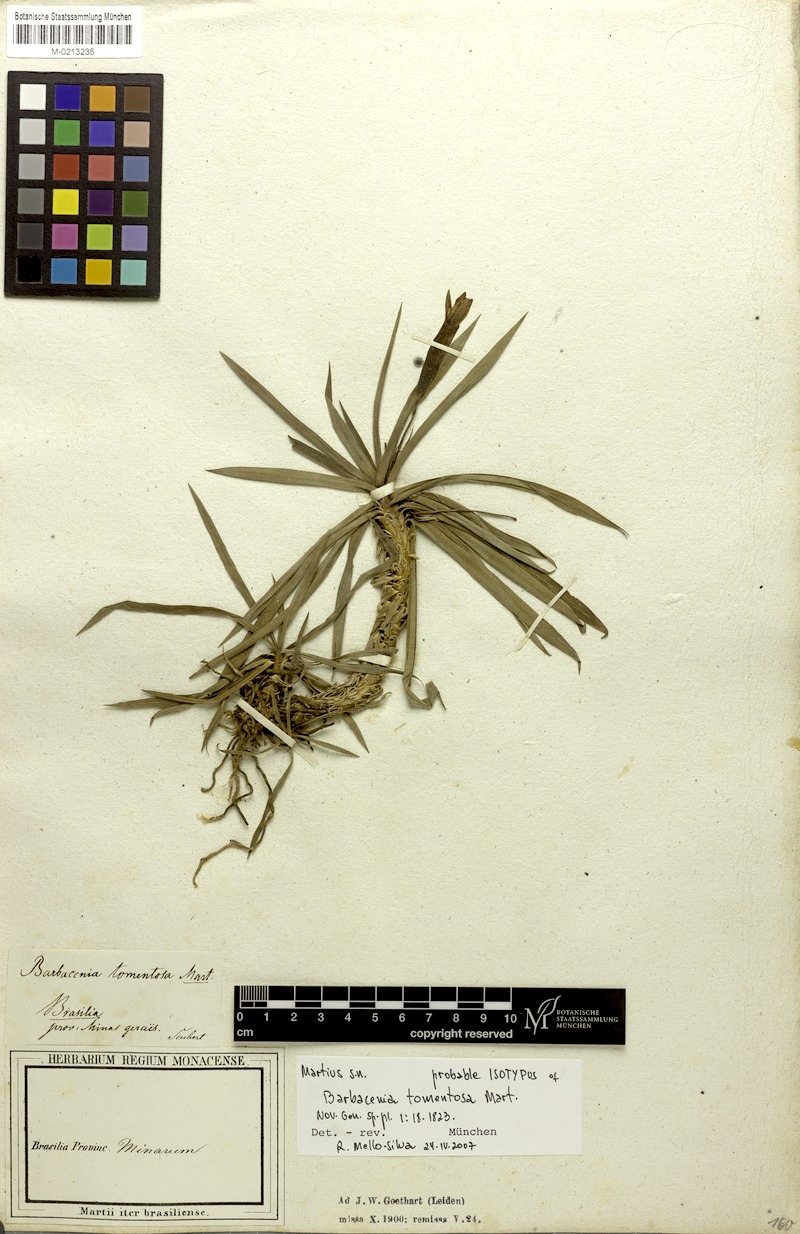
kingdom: Plantae
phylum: Tracheophyta
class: Liliopsida
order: Pandanales
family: Velloziaceae
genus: Barbacenia
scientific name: Barbacenia tomentosa
